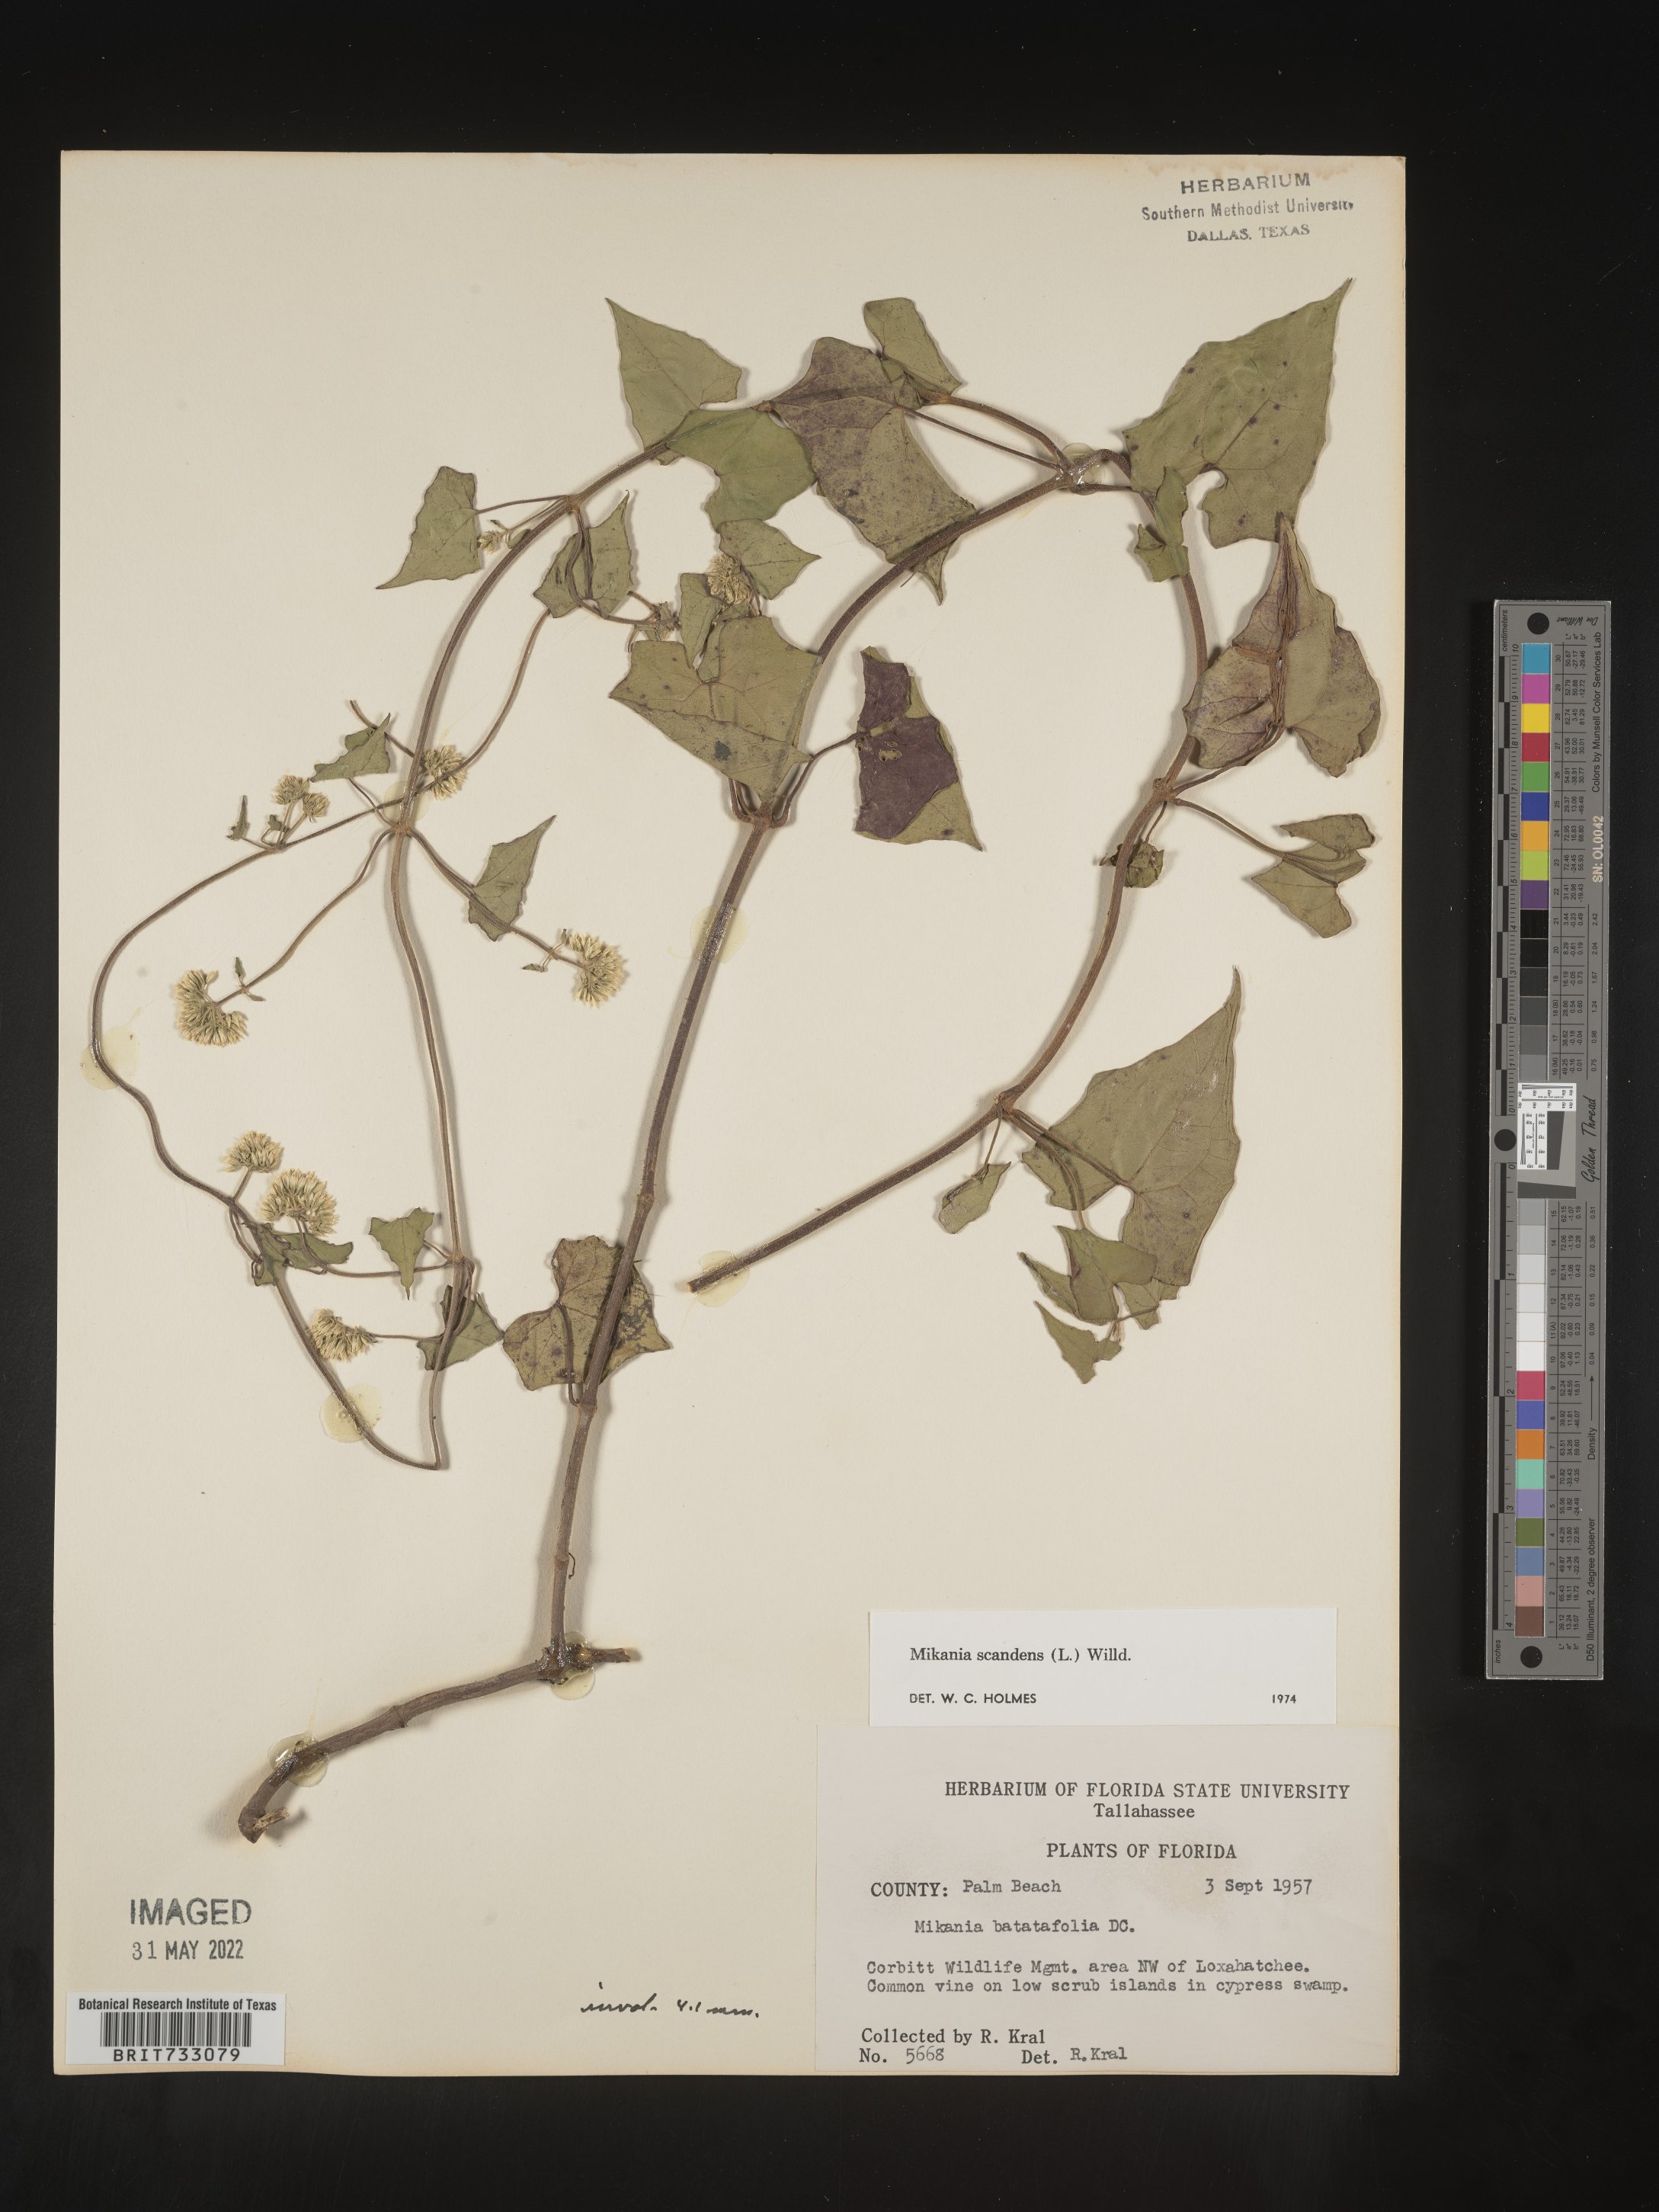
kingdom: Plantae
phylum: Tracheophyta
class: Magnoliopsida
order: Asterales
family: Asteraceae
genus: Mikania
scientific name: Mikania scandens
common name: Climbing hempvine
